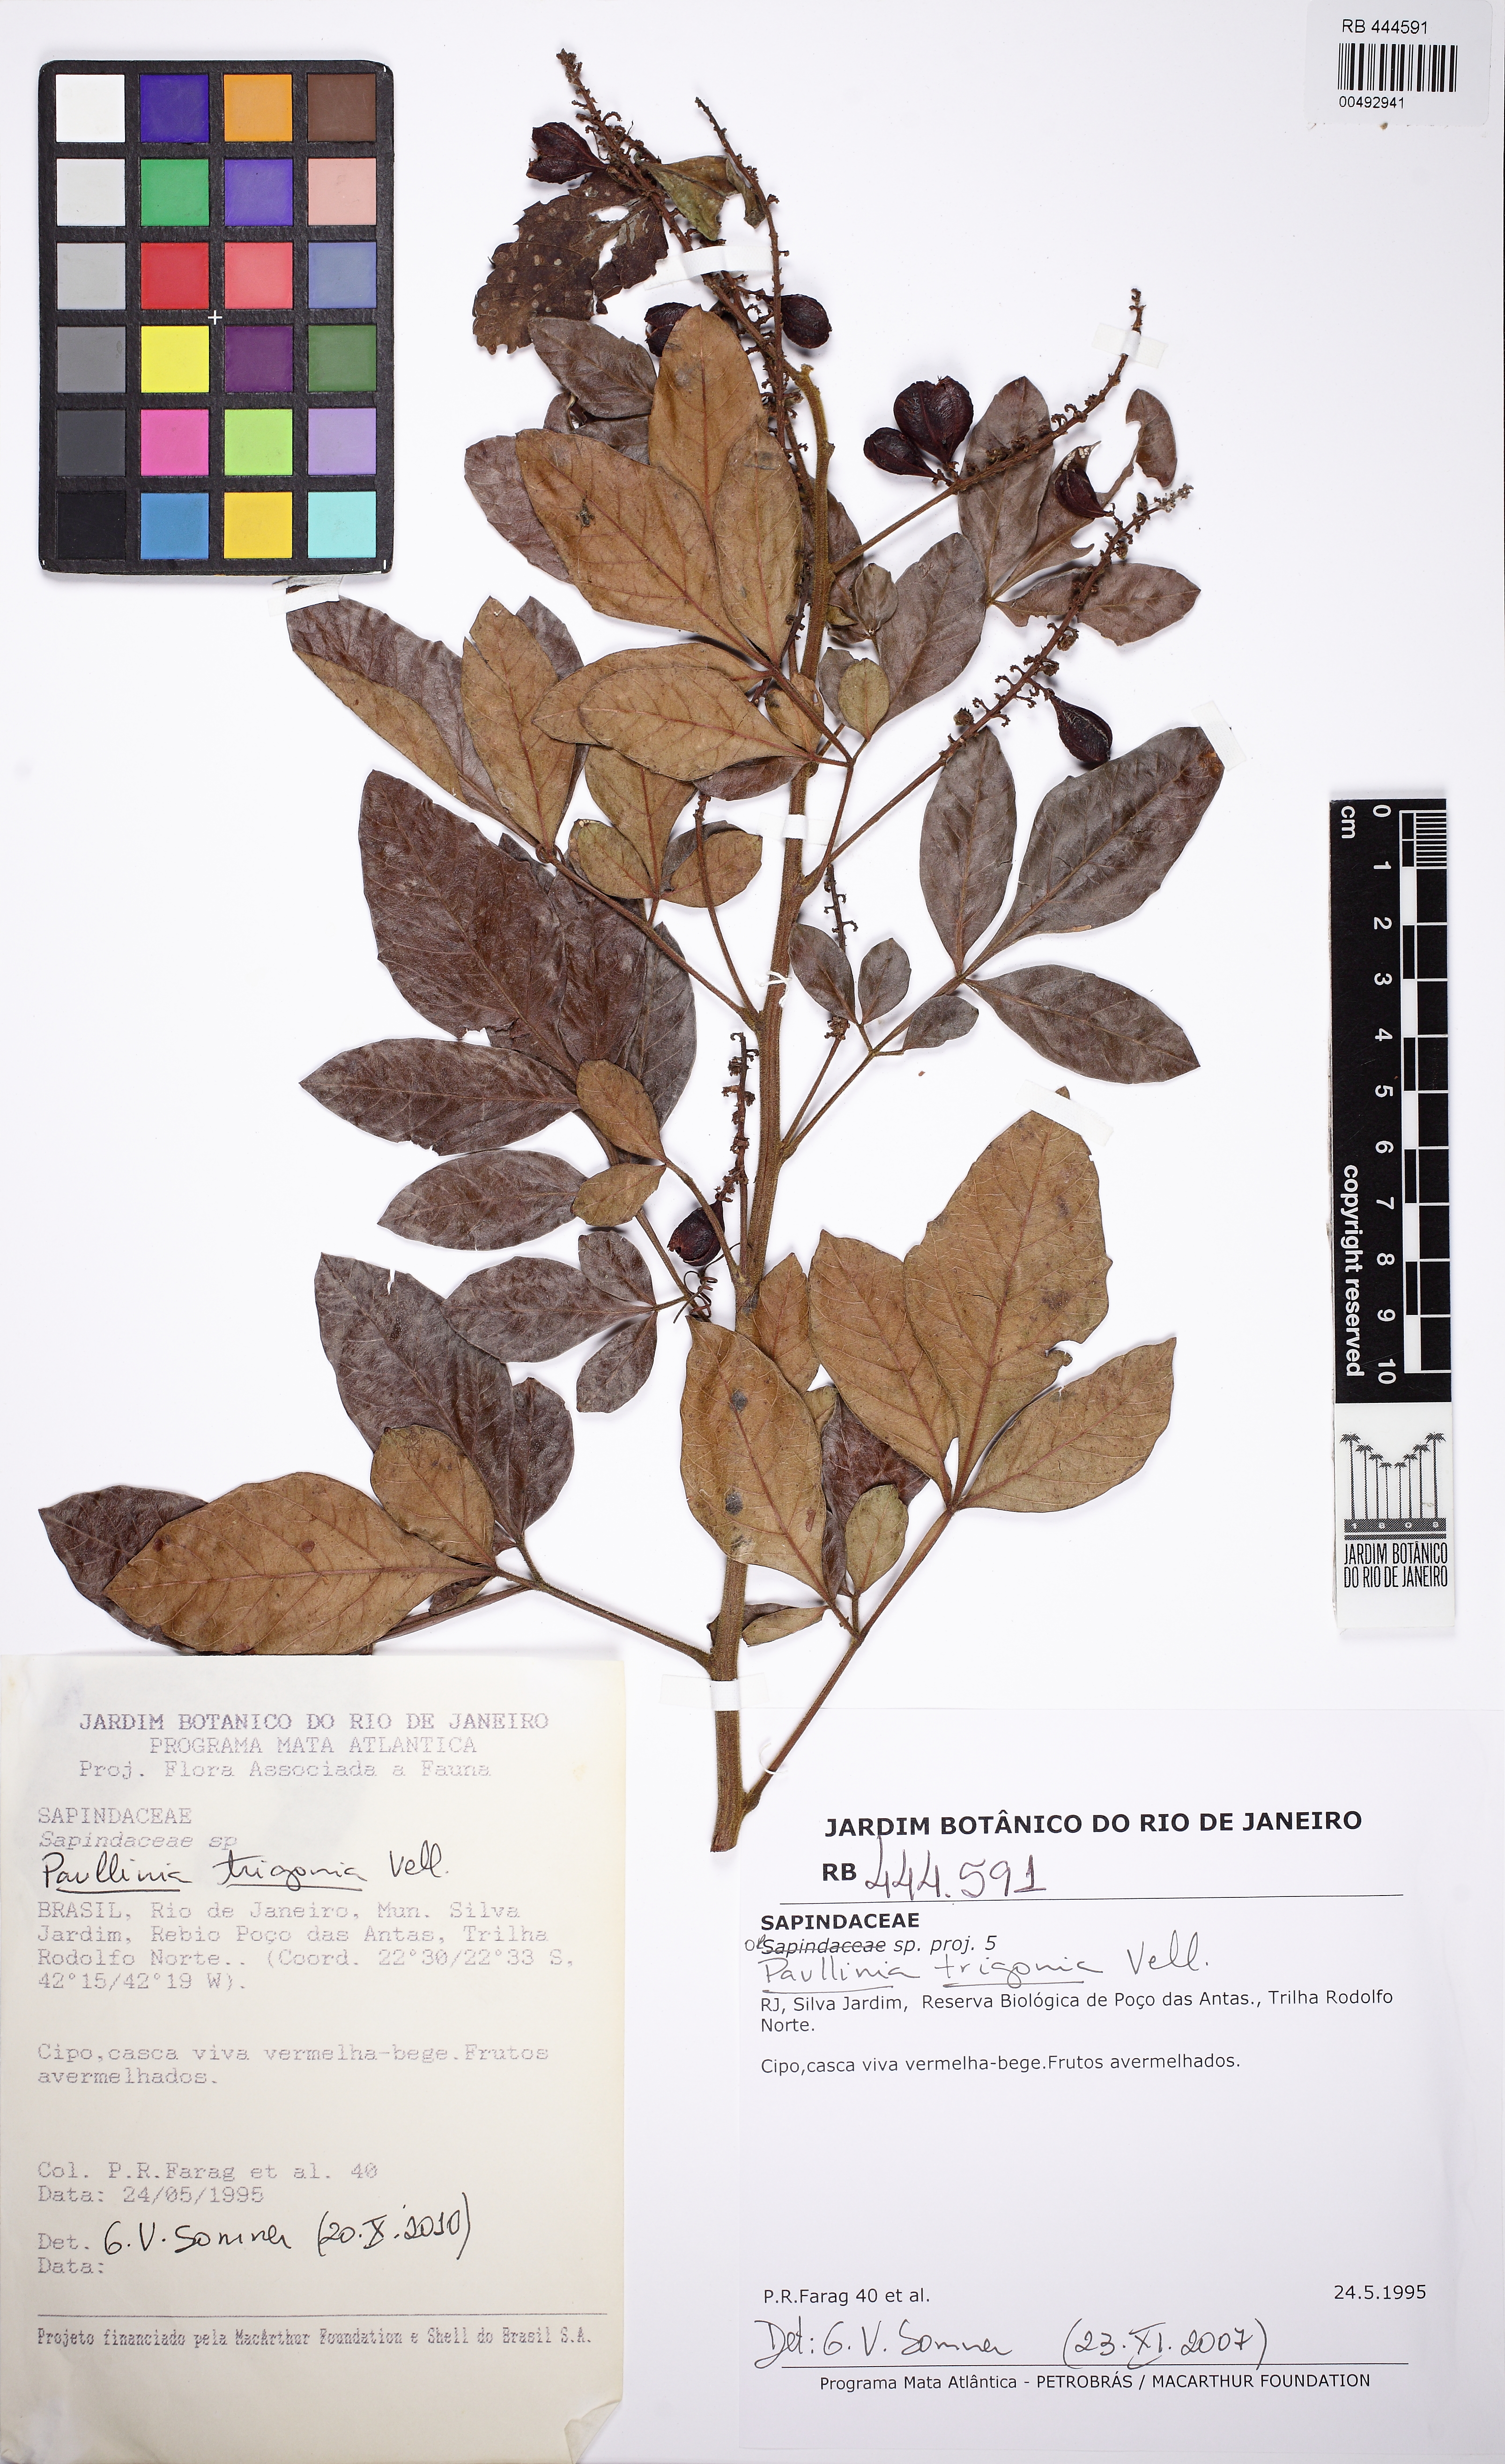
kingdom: Plantae
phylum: Tracheophyta
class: Magnoliopsida
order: Sapindales
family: Sapindaceae
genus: Paullinia
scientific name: Paullinia trigonia
